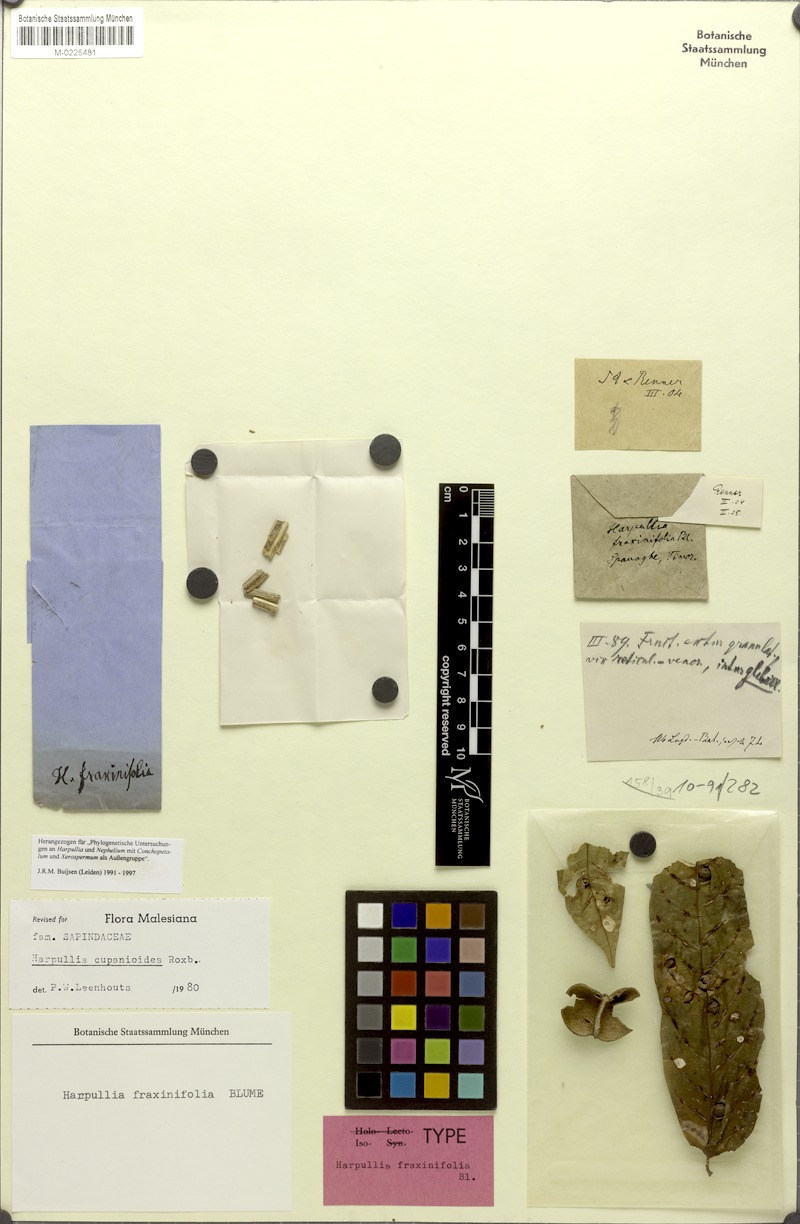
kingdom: Plantae
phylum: Tracheophyta
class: Magnoliopsida
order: Sapindales
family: Sapindaceae
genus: Harpullia
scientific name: Harpullia cupanioides
